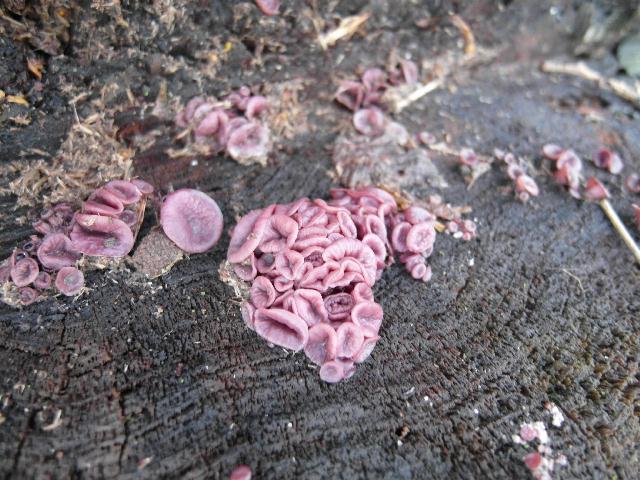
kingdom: Fungi
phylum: Ascomycota
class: Leotiomycetes
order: Helotiales
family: Gelatinodiscaceae
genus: Ascocoryne
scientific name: Ascocoryne cylichnium
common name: stor sejskive
